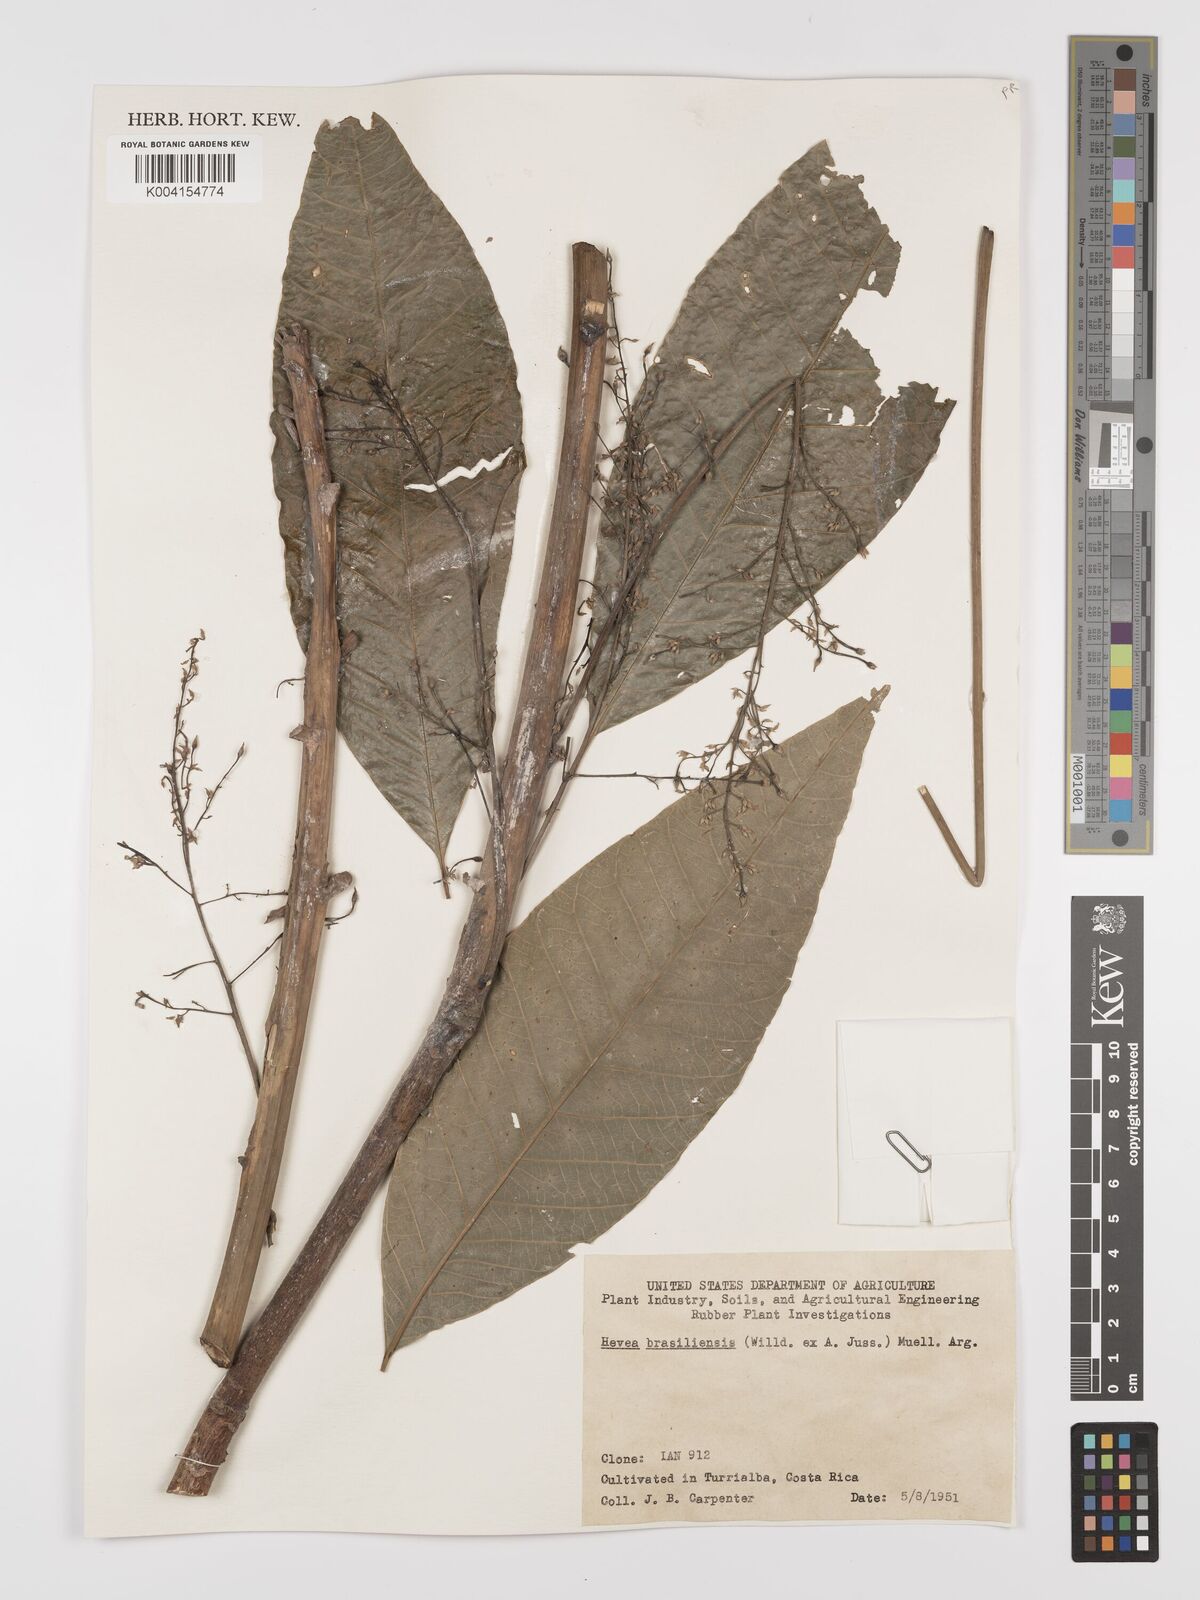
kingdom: Plantae
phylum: Tracheophyta
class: Magnoliopsida
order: Malpighiales
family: Euphorbiaceae
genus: Hevea
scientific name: Hevea brasiliensis
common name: Natural rubber
